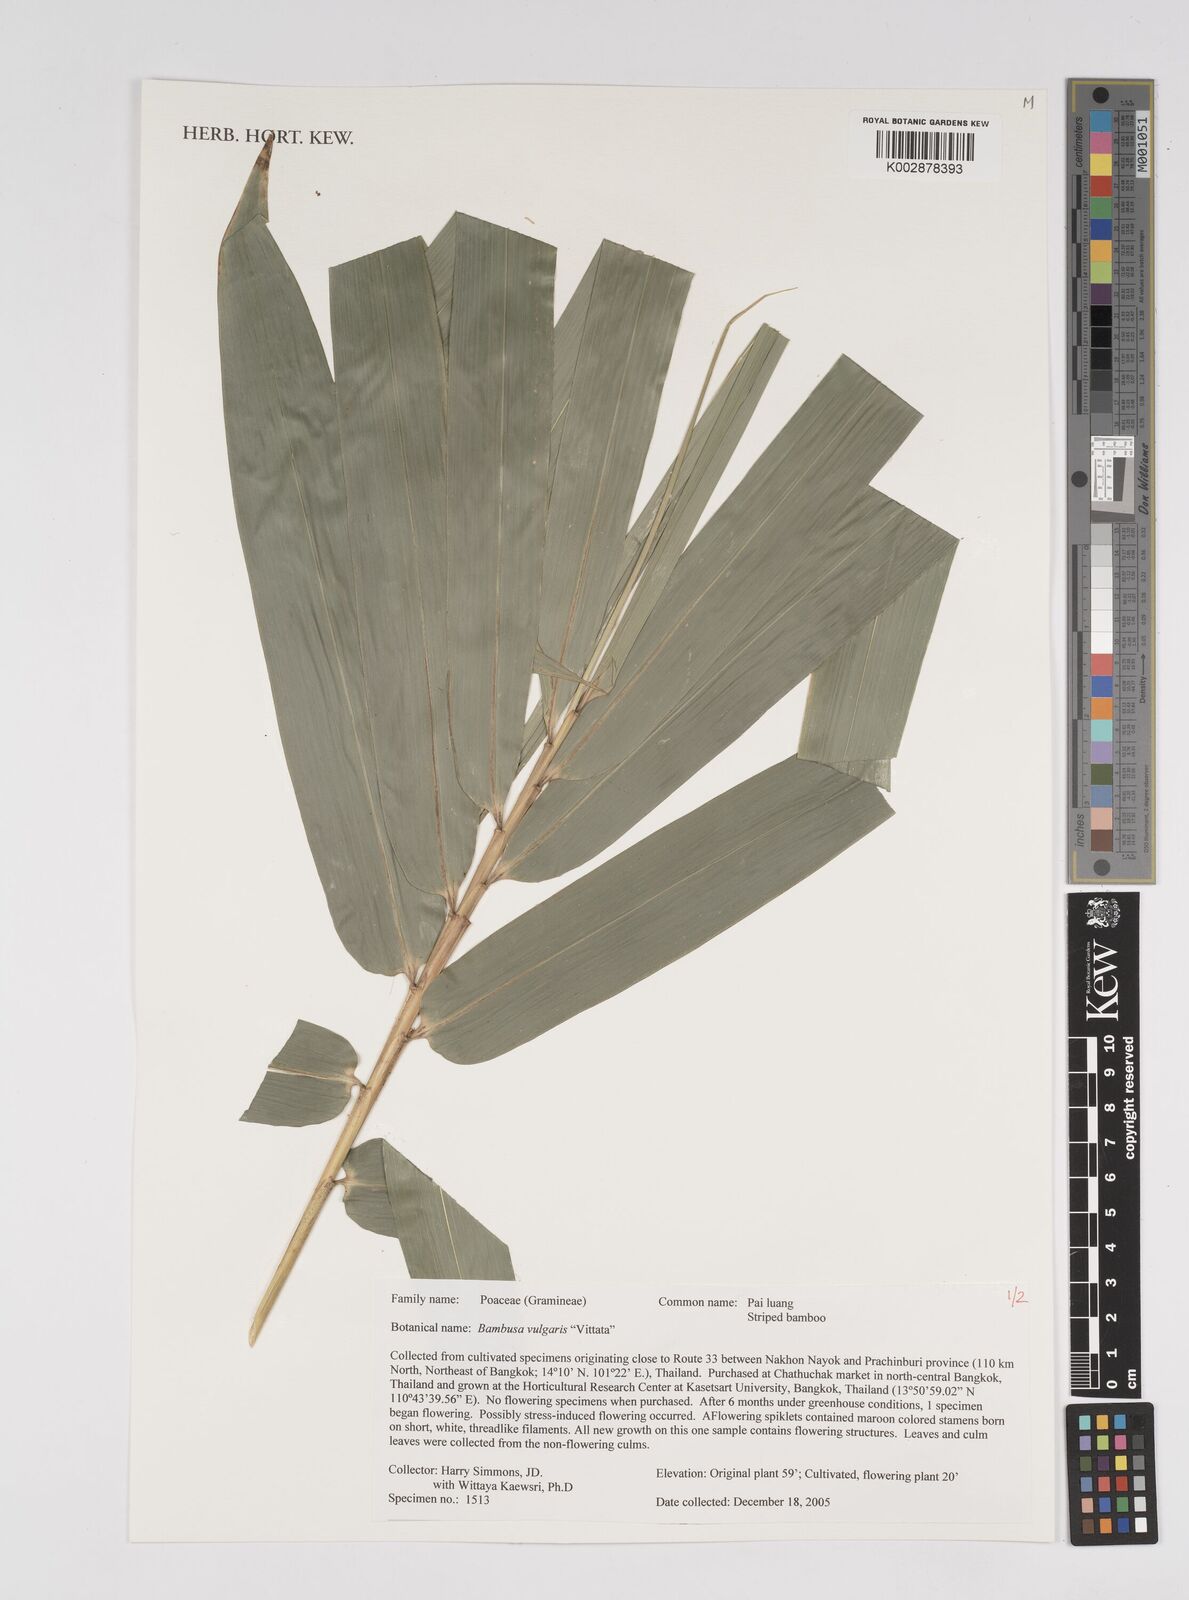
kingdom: Plantae
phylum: Tracheophyta
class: Liliopsida
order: Poales
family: Poaceae
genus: Bambusa
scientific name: Bambusa
